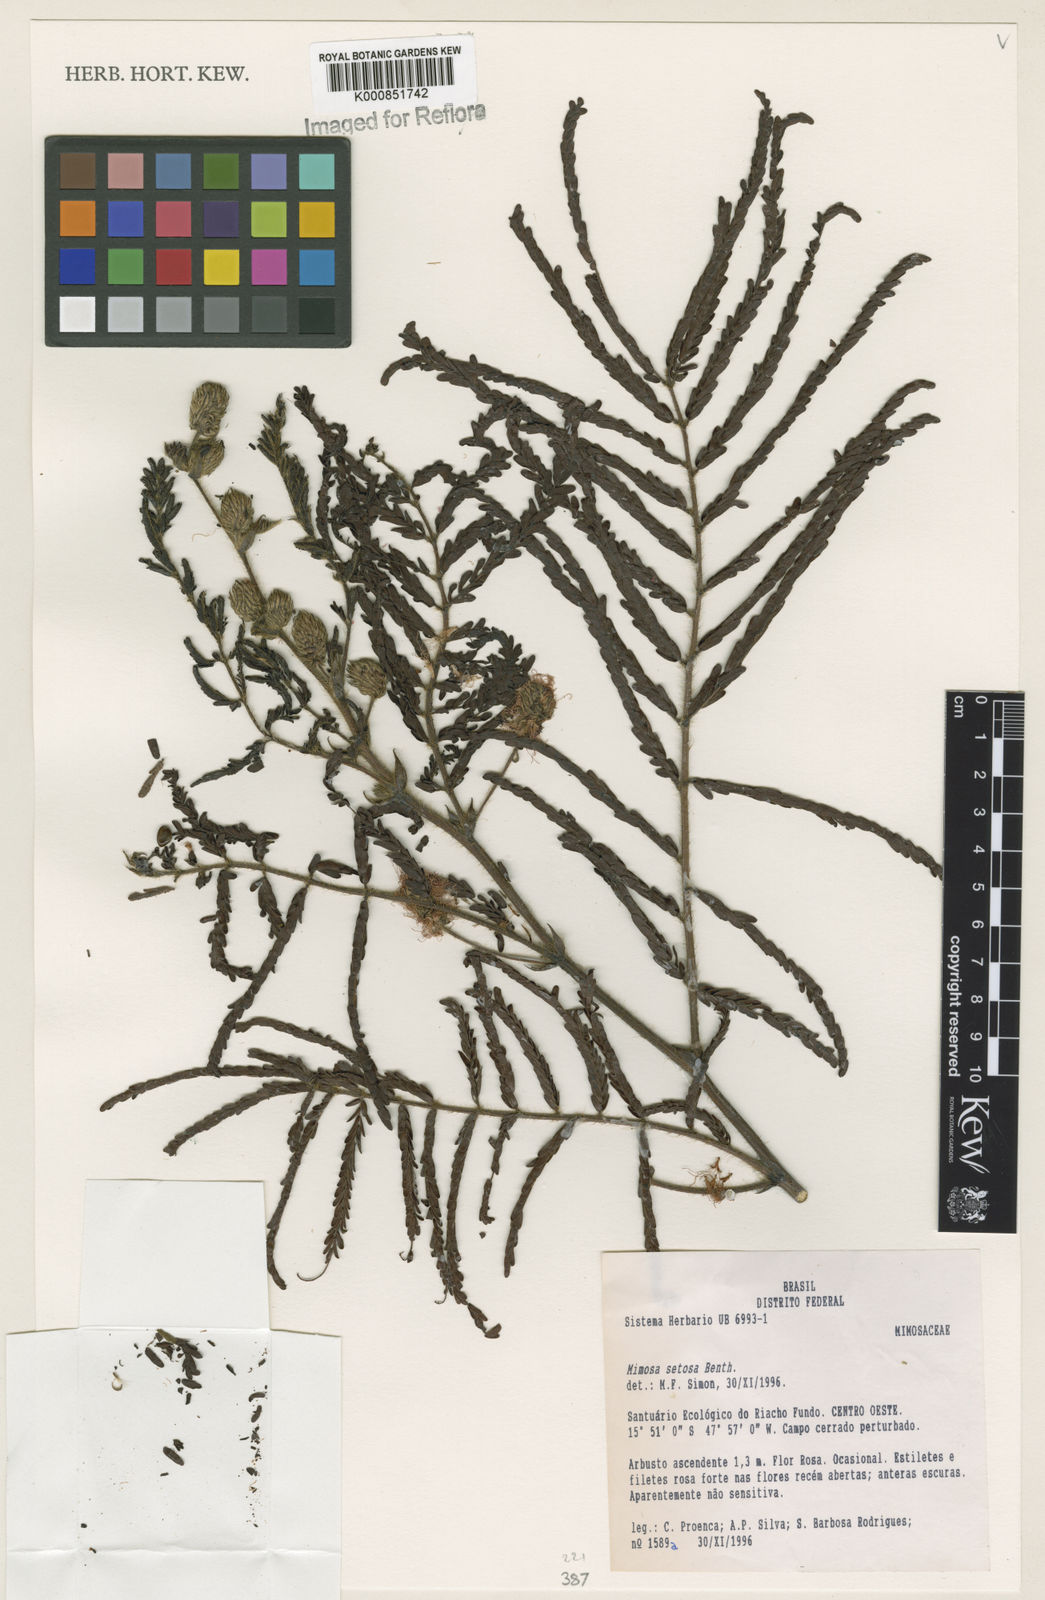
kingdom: Plantae
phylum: Tracheophyta
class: Magnoliopsida
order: Fabales
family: Fabaceae
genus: Mimosa
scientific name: Mimosa setosa
